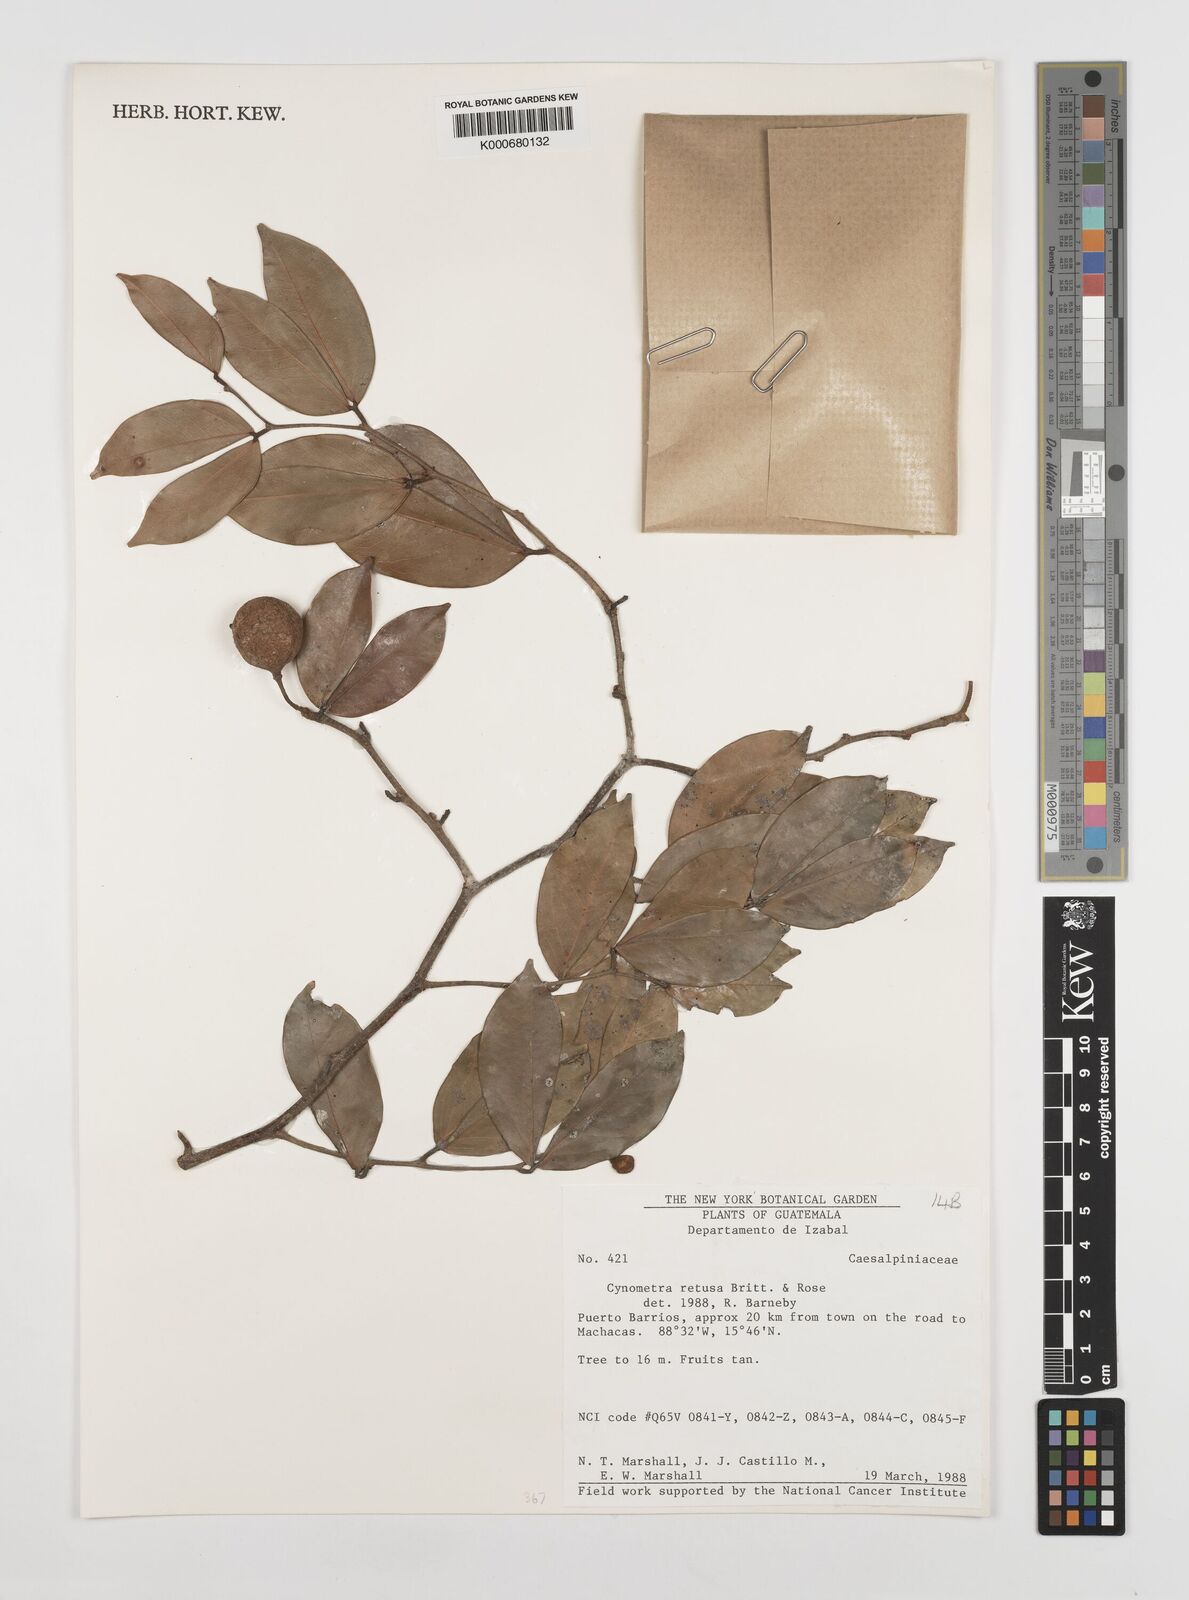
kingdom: Plantae
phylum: Tracheophyta
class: Magnoliopsida
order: Fabales
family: Fabaceae
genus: Cynometra
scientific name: Cynometra retusa
